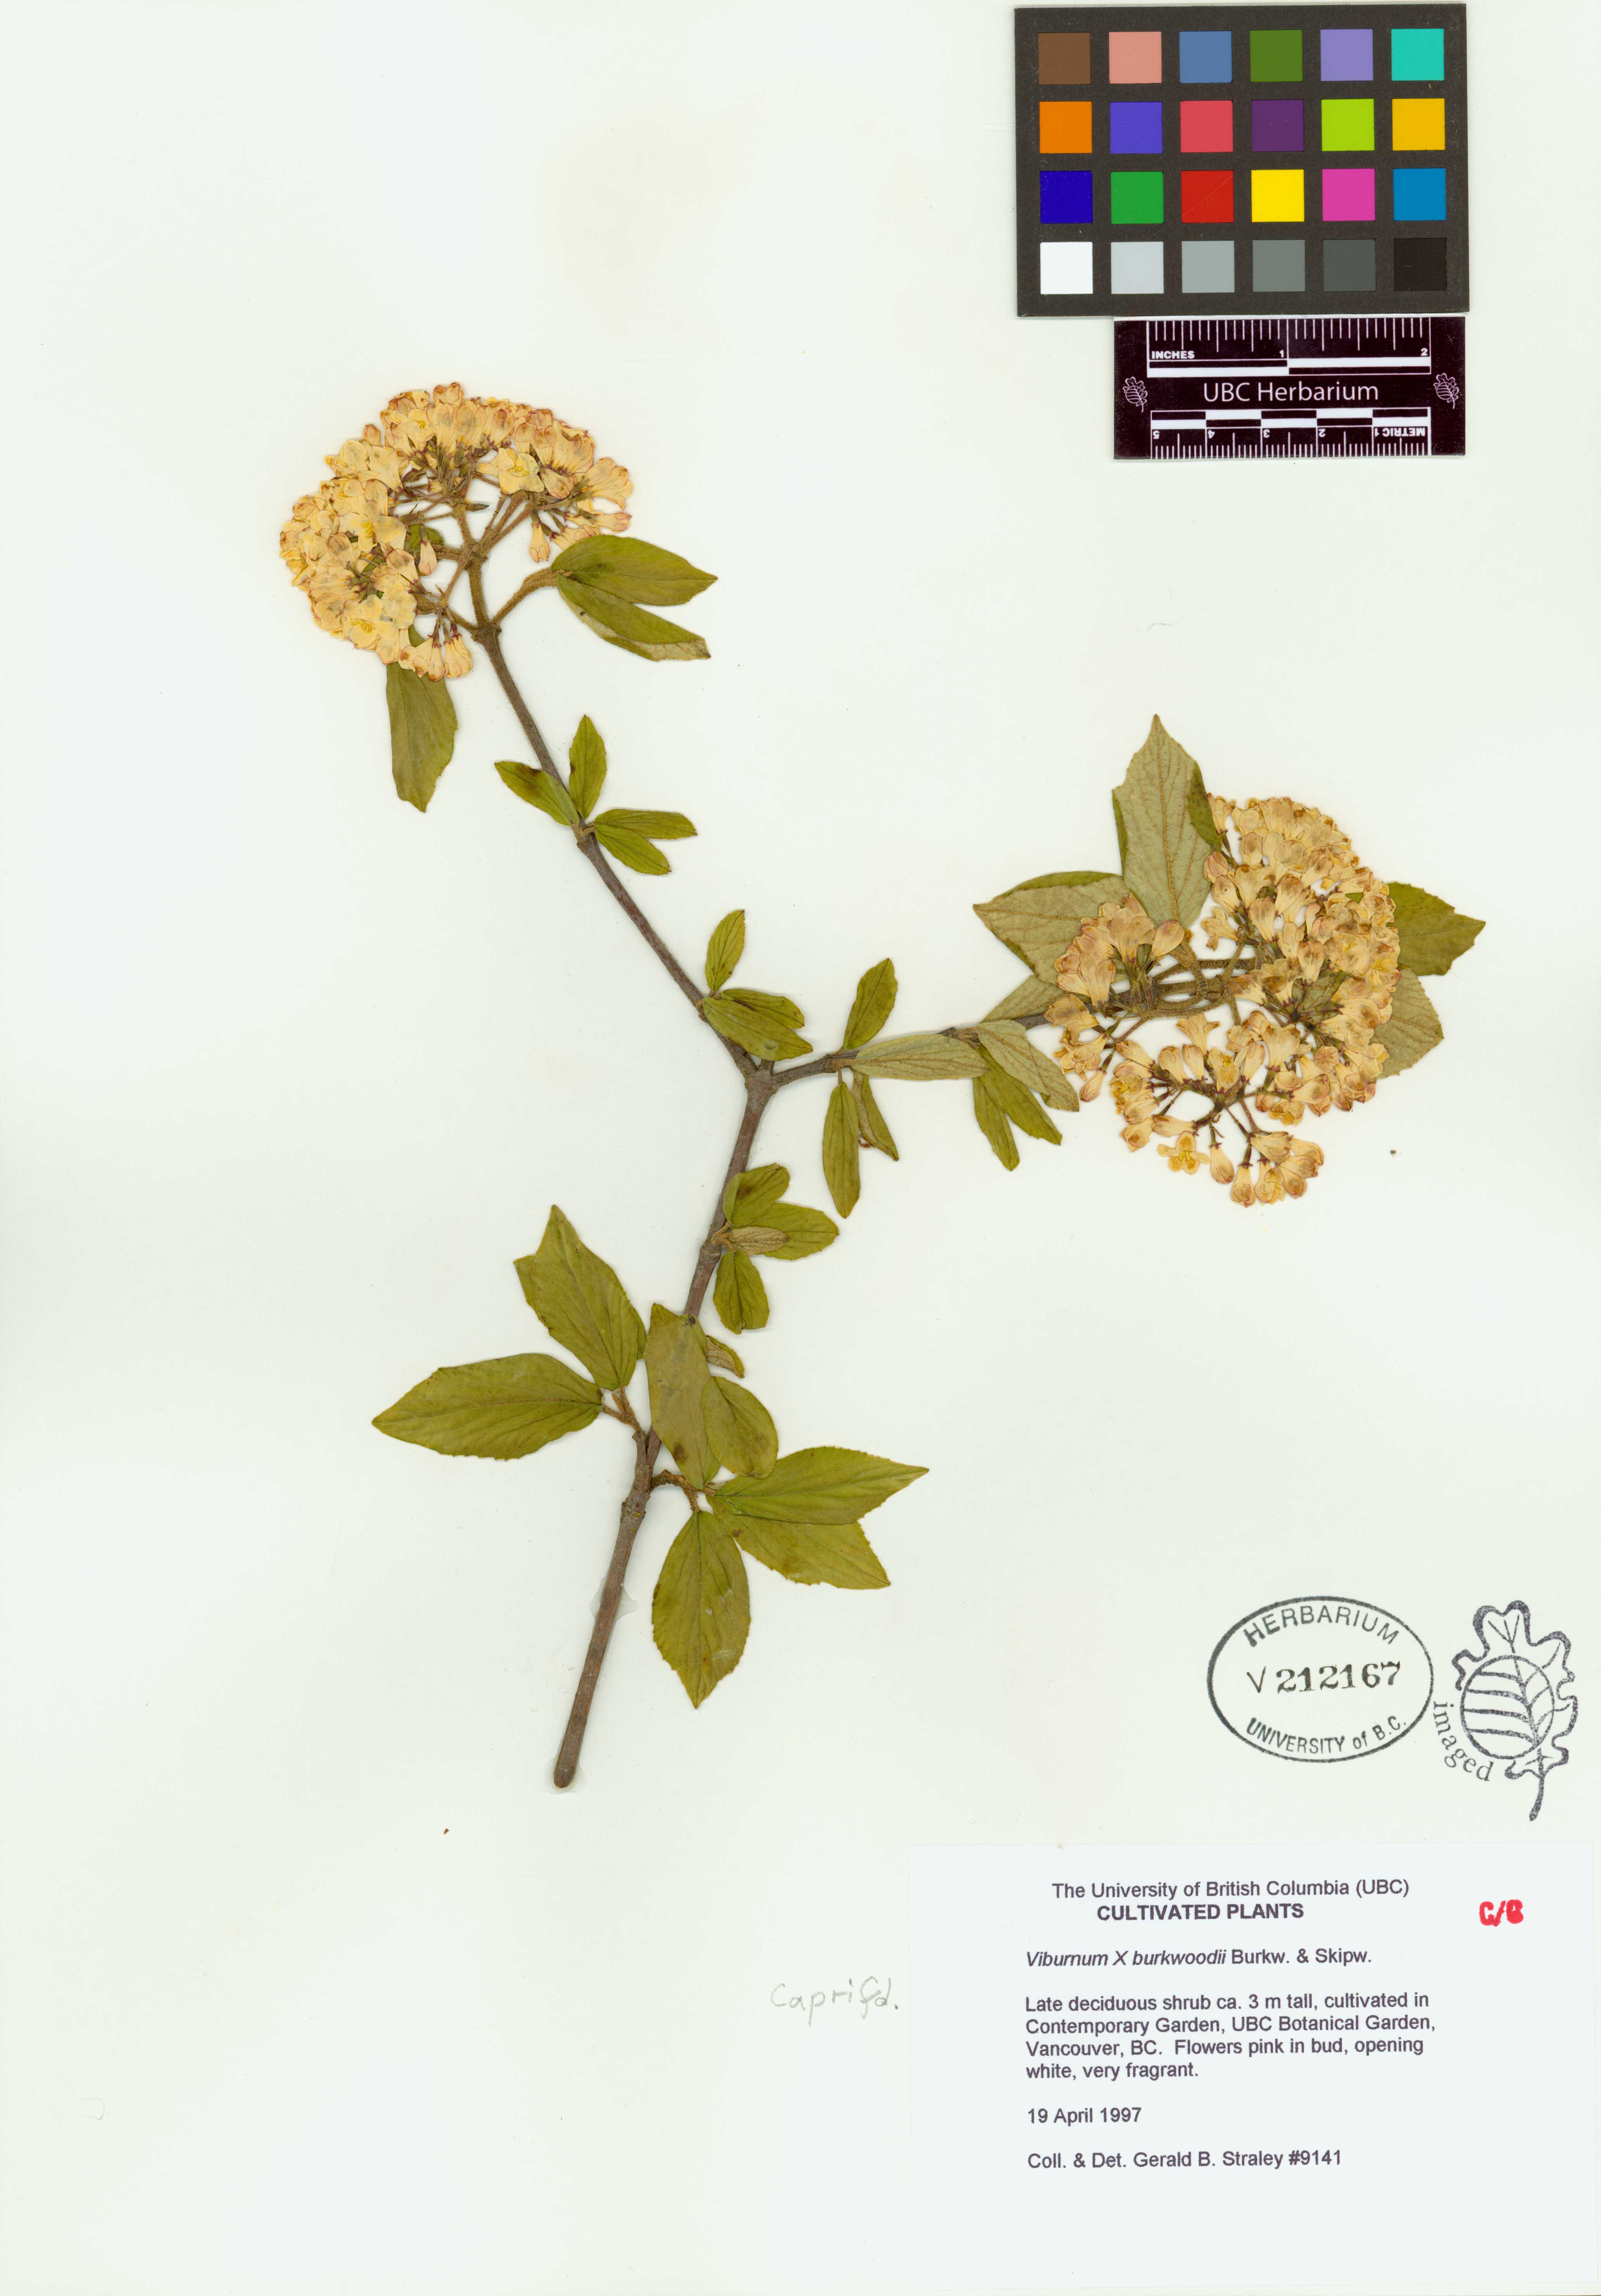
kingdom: Plantae
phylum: Tracheophyta
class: Magnoliopsida
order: Dipsacales
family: Viburnaceae
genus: Viburnum
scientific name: Viburnum
